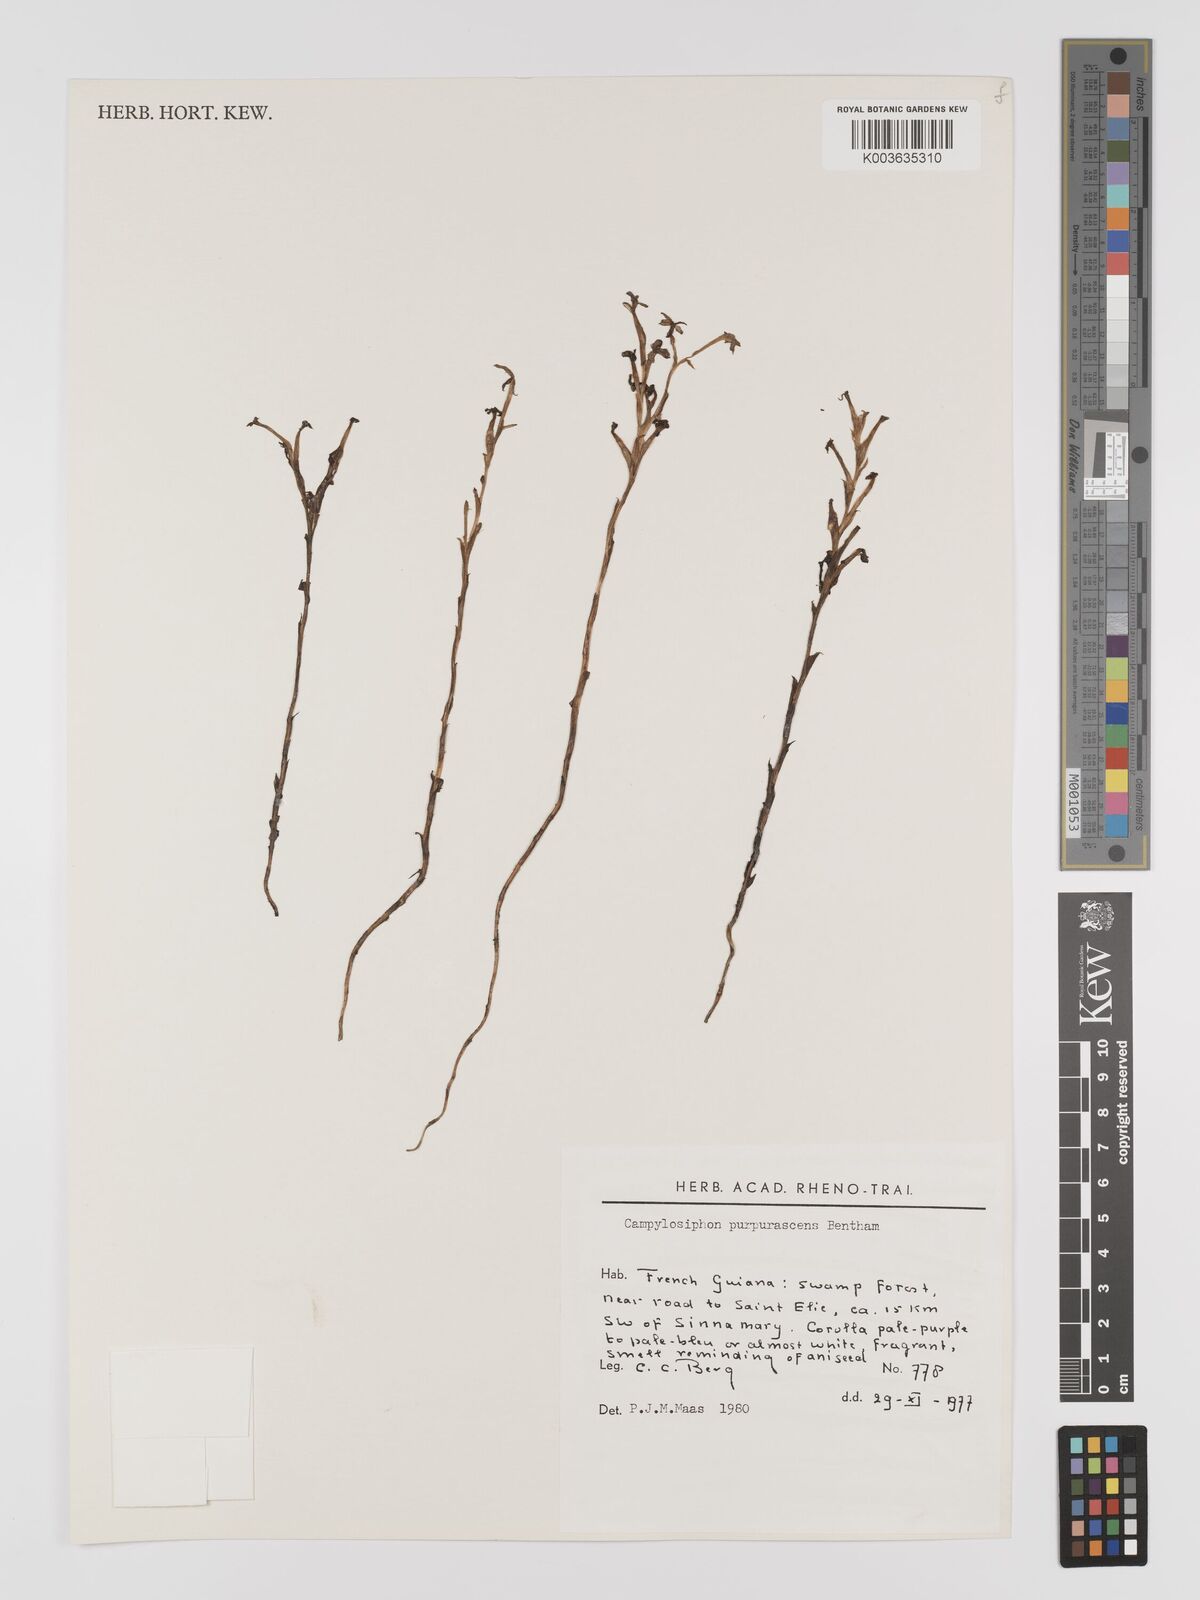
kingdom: Plantae
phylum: Tracheophyta
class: Liliopsida
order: Dioscoreales
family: Burmanniaceae
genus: Campylosiphon
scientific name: Campylosiphon purpurascens
